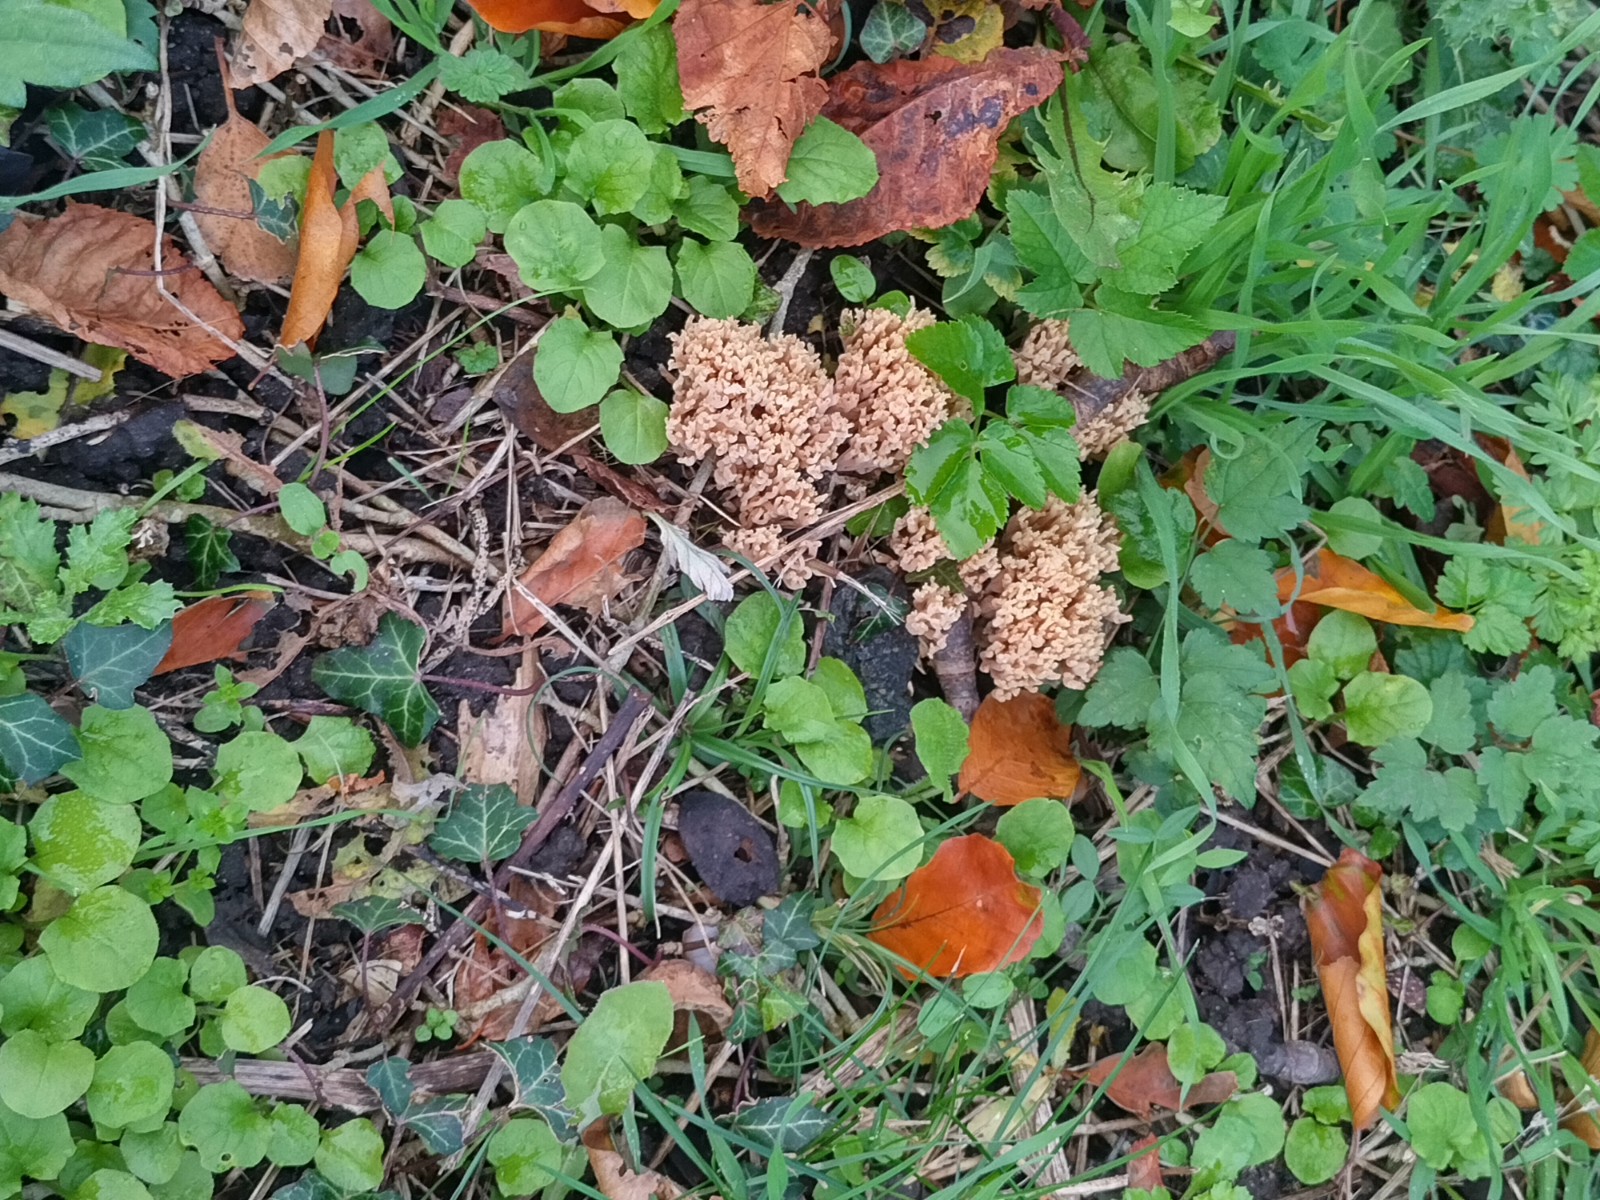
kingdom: Fungi
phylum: Basidiomycota
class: Agaricomycetes
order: Gomphales
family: Gomphaceae
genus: Ramaria
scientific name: Ramaria stricta
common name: rank koralsvamp
